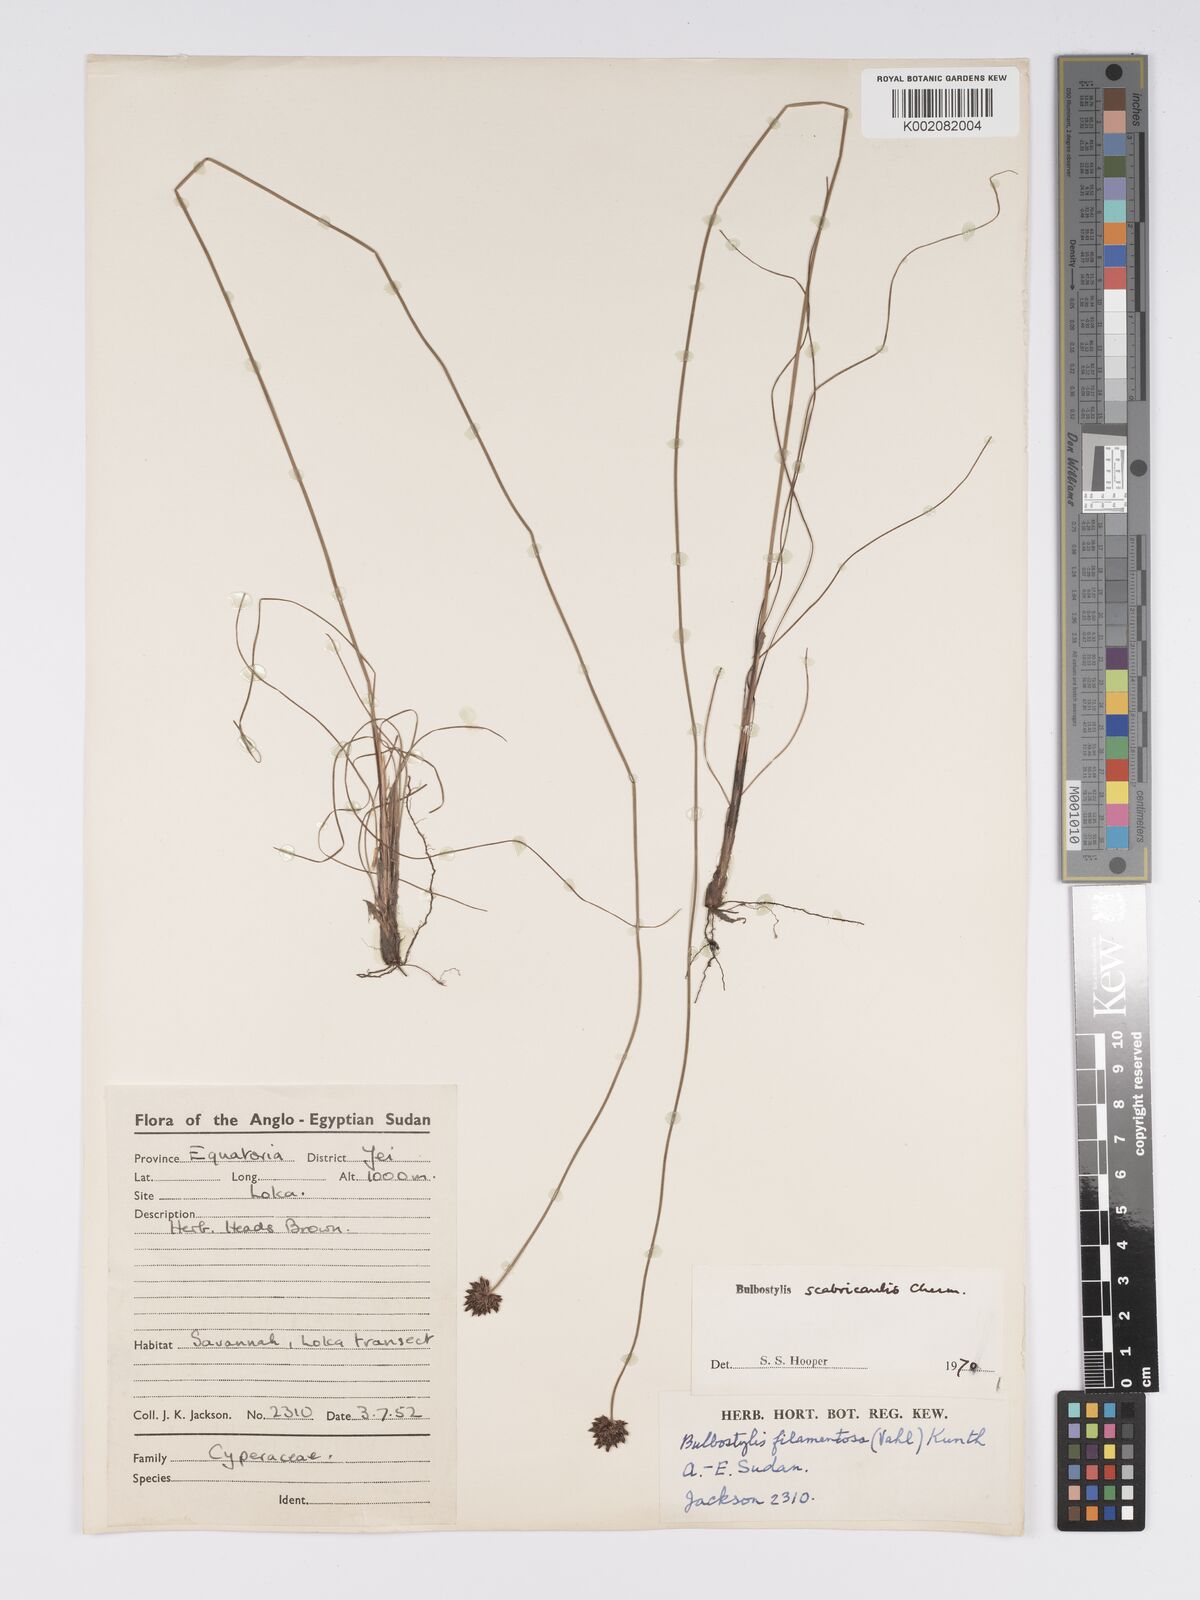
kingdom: Plantae
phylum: Tracheophyta
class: Liliopsida
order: Poales
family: Cyperaceae
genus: Bulbostylis
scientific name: Bulbostylis scabricaulis
